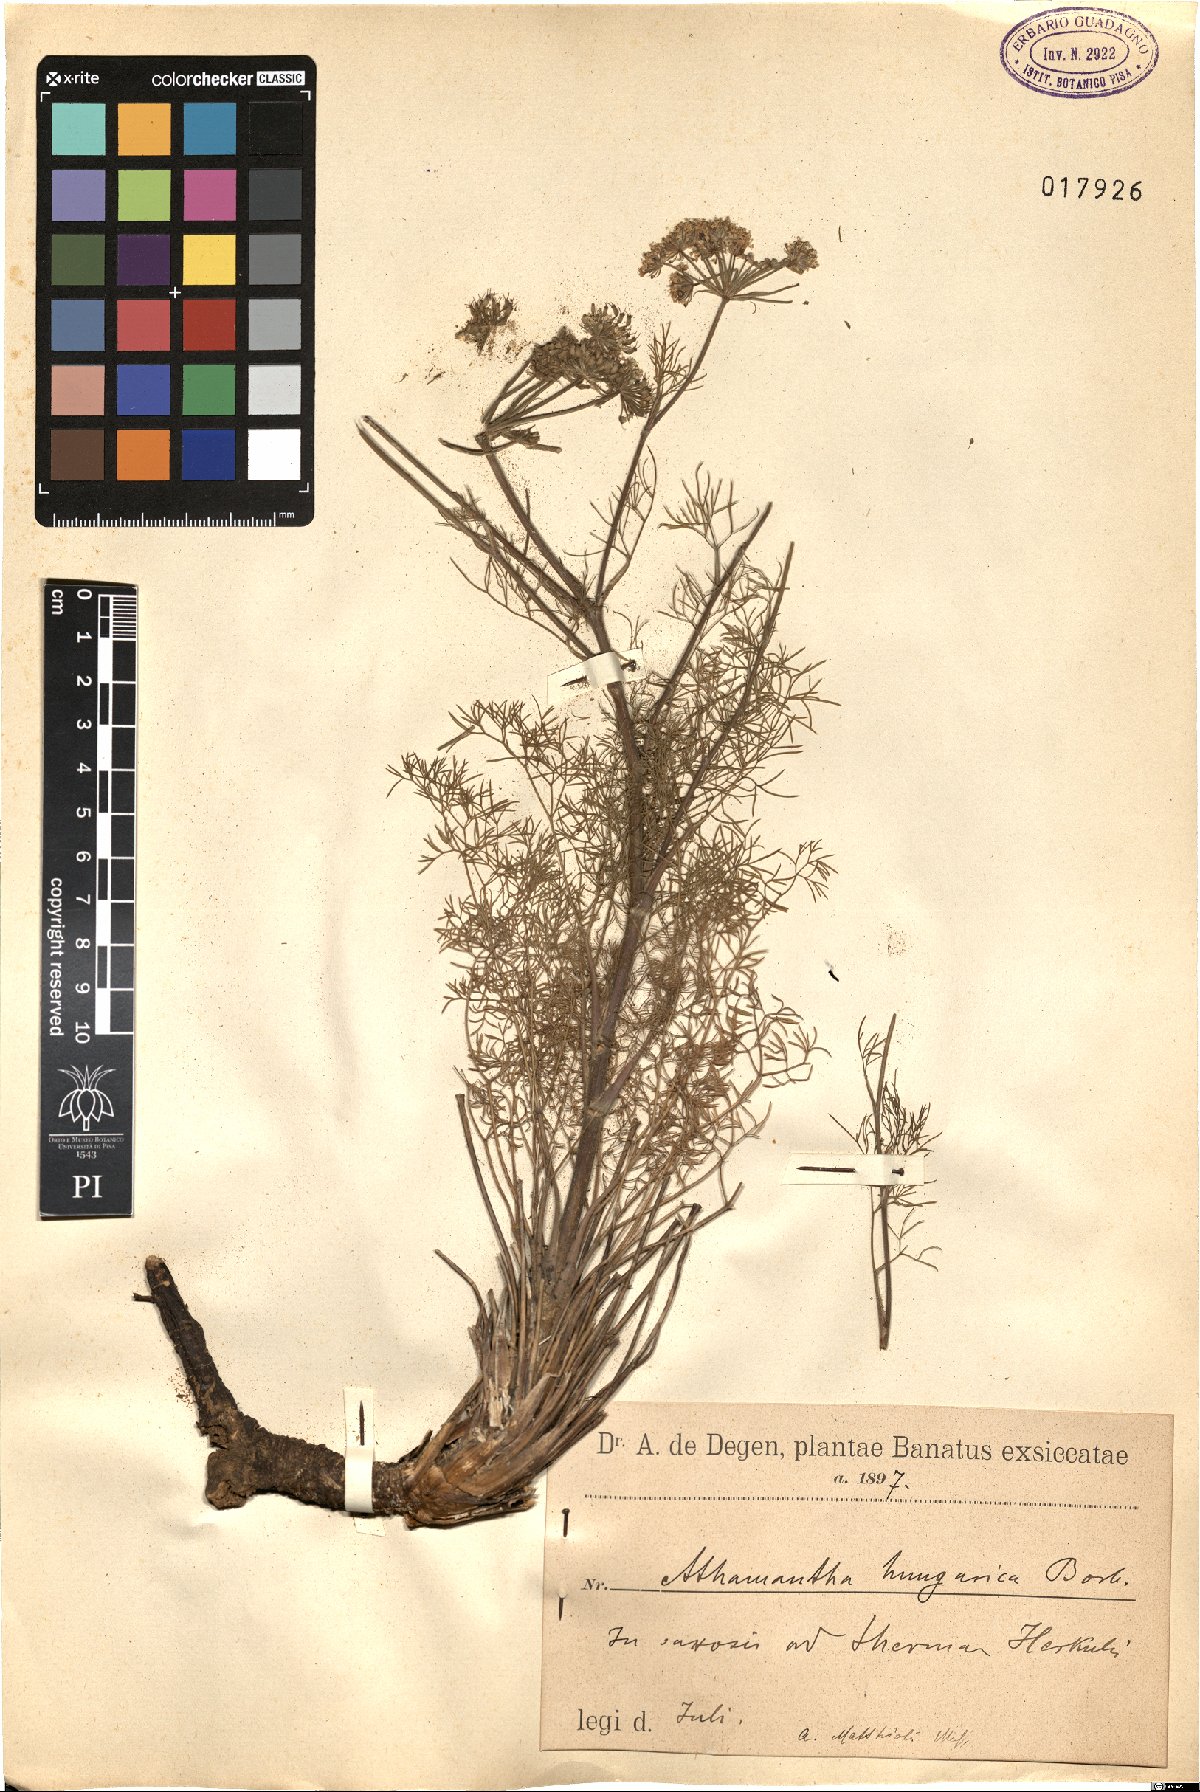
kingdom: Plantae
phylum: Tracheophyta
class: Magnoliopsida
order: Apiales
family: Apiaceae
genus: Athamanta
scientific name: Athamanta turbith
